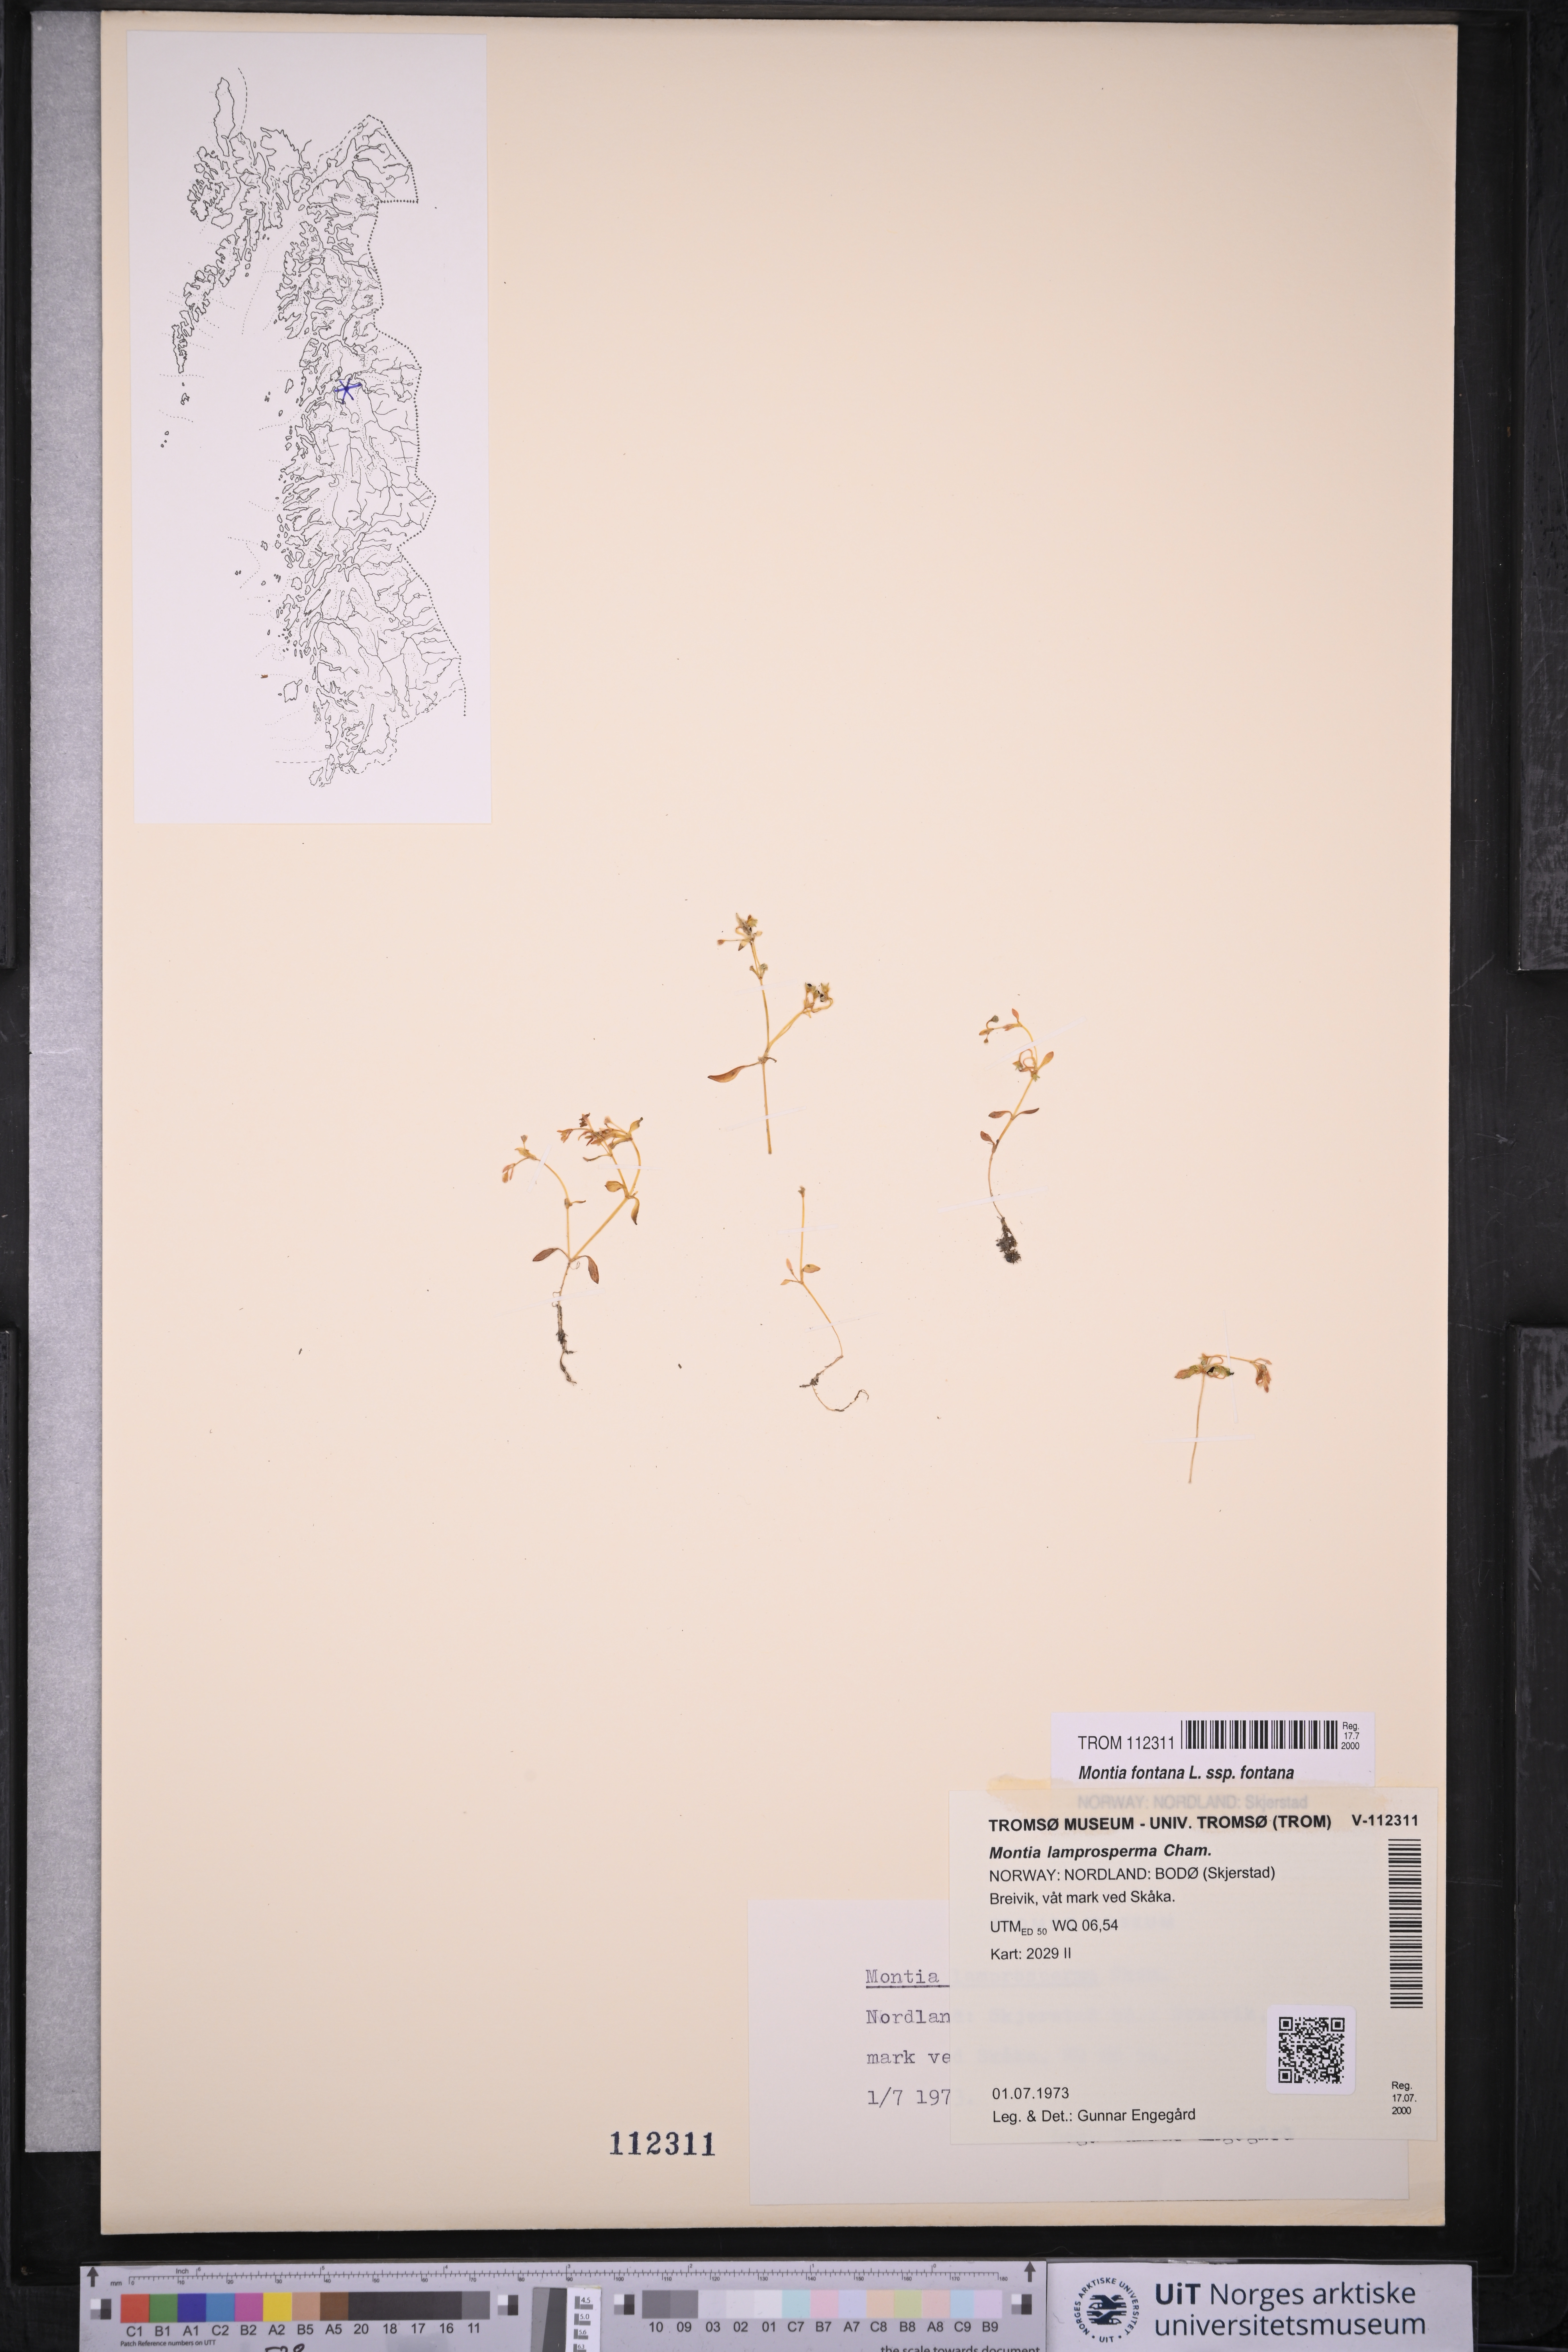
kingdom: Plantae
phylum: Tracheophyta
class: Magnoliopsida
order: Caryophyllales
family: Montiaceae
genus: Montia
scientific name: Montia fontana
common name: Blinks
